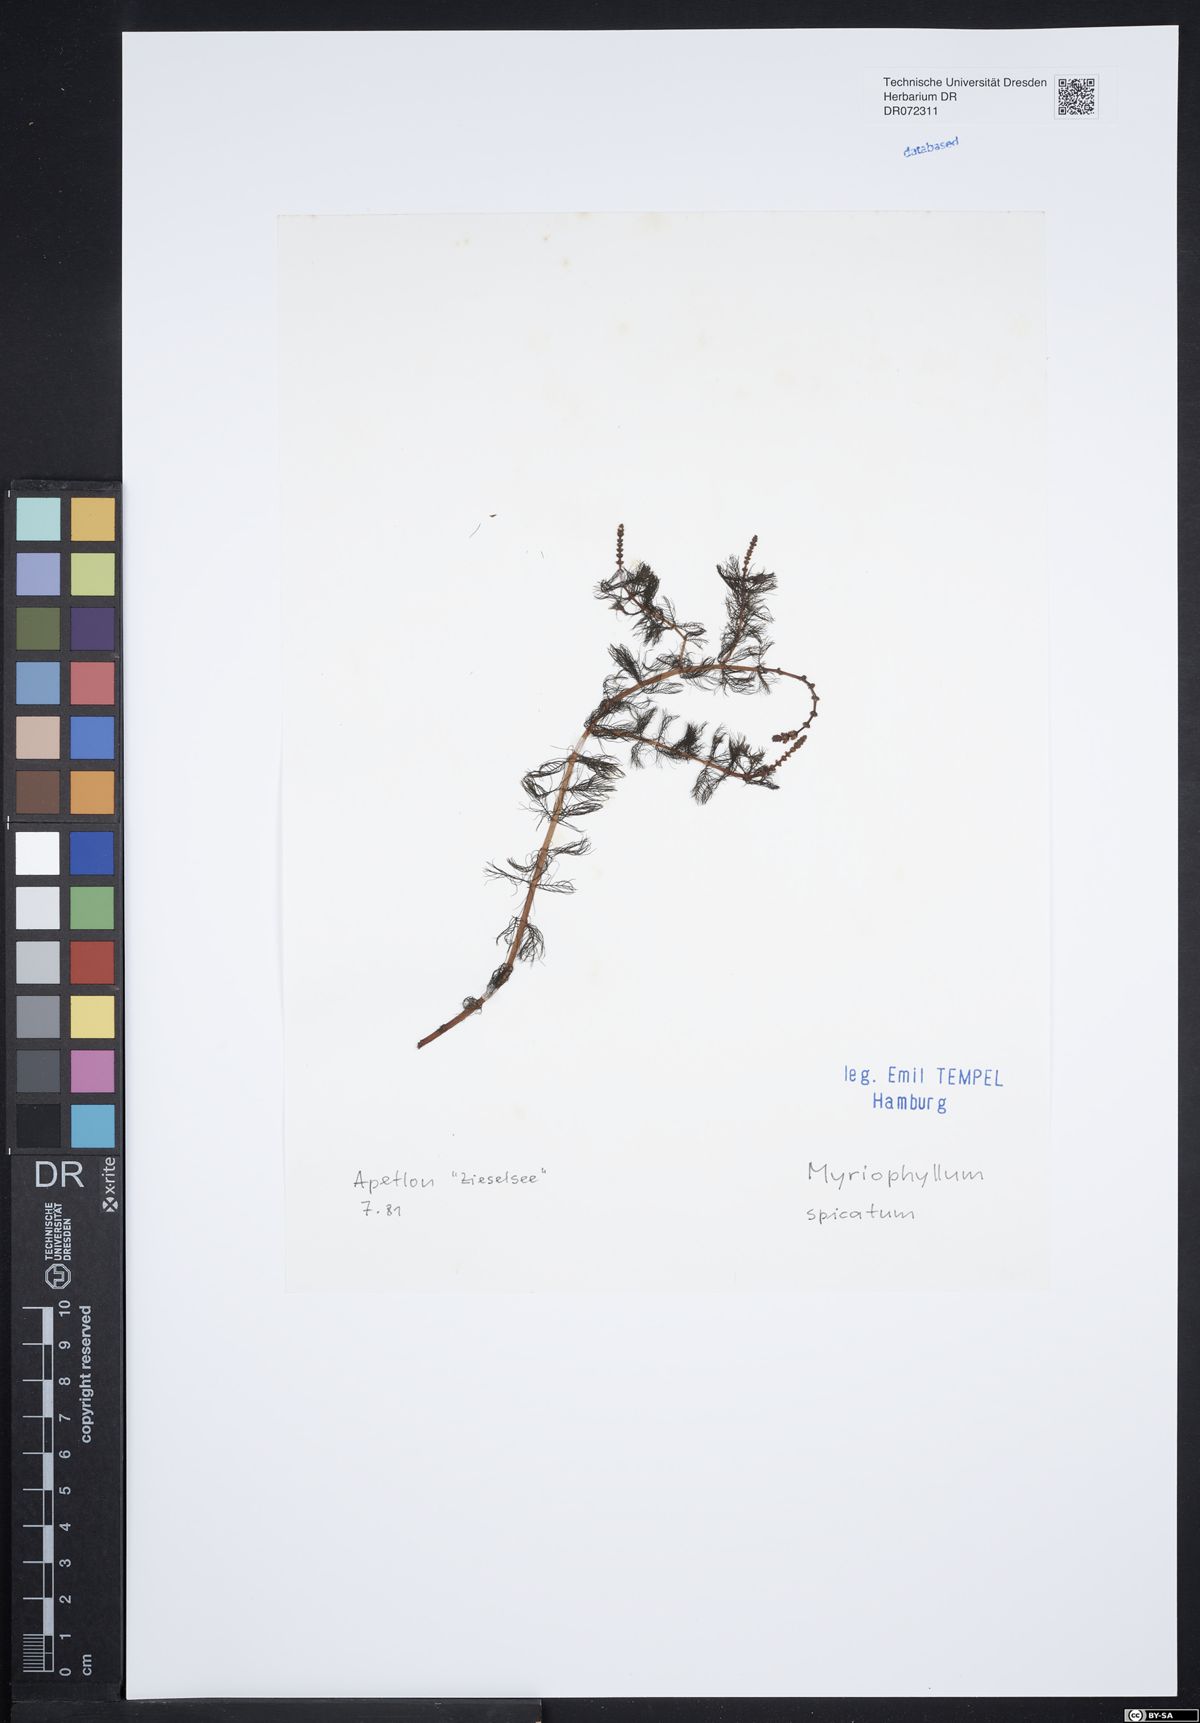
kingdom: Plantae
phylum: Tracheophyta
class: Magnoliopsida
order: Saxifragales
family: Haloragaceae
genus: Myriophyllum
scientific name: Myriophyllum spicatum
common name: Spiked water-milfoil
